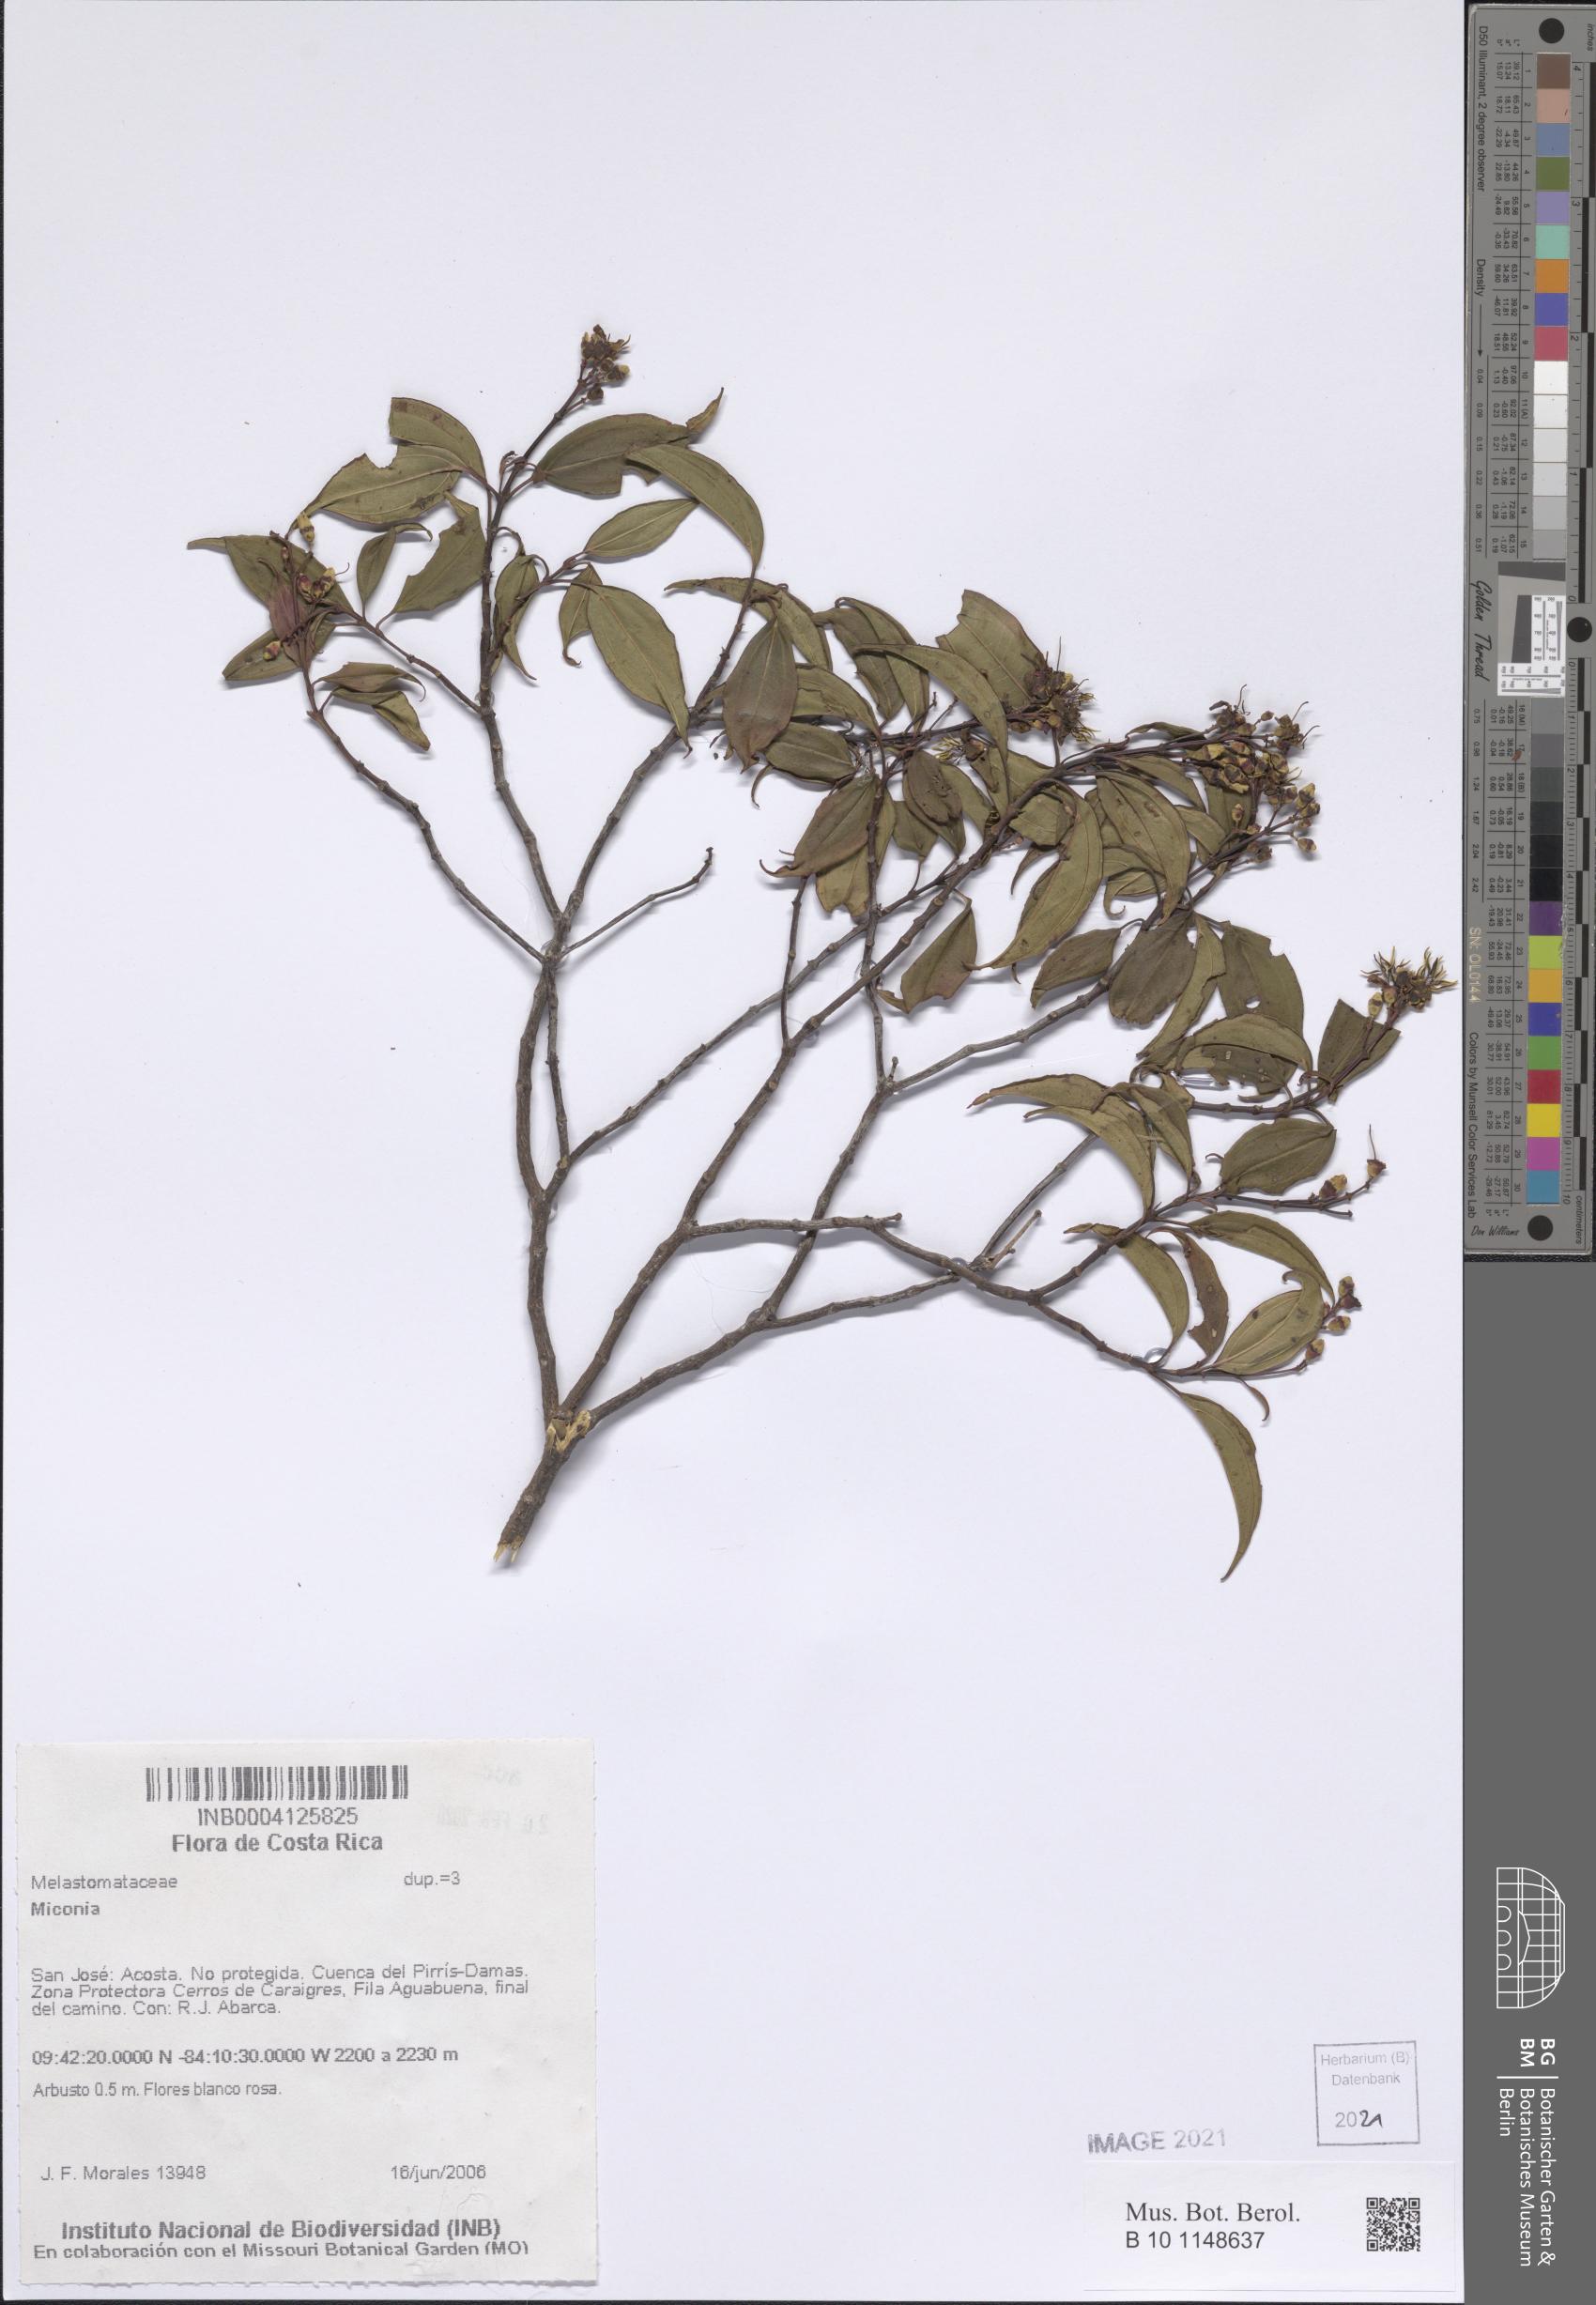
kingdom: Plantae
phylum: Tracheophyta
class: Magnoliopsida
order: Myrtales
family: Melastomataceae
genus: Miconia
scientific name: Miconia
